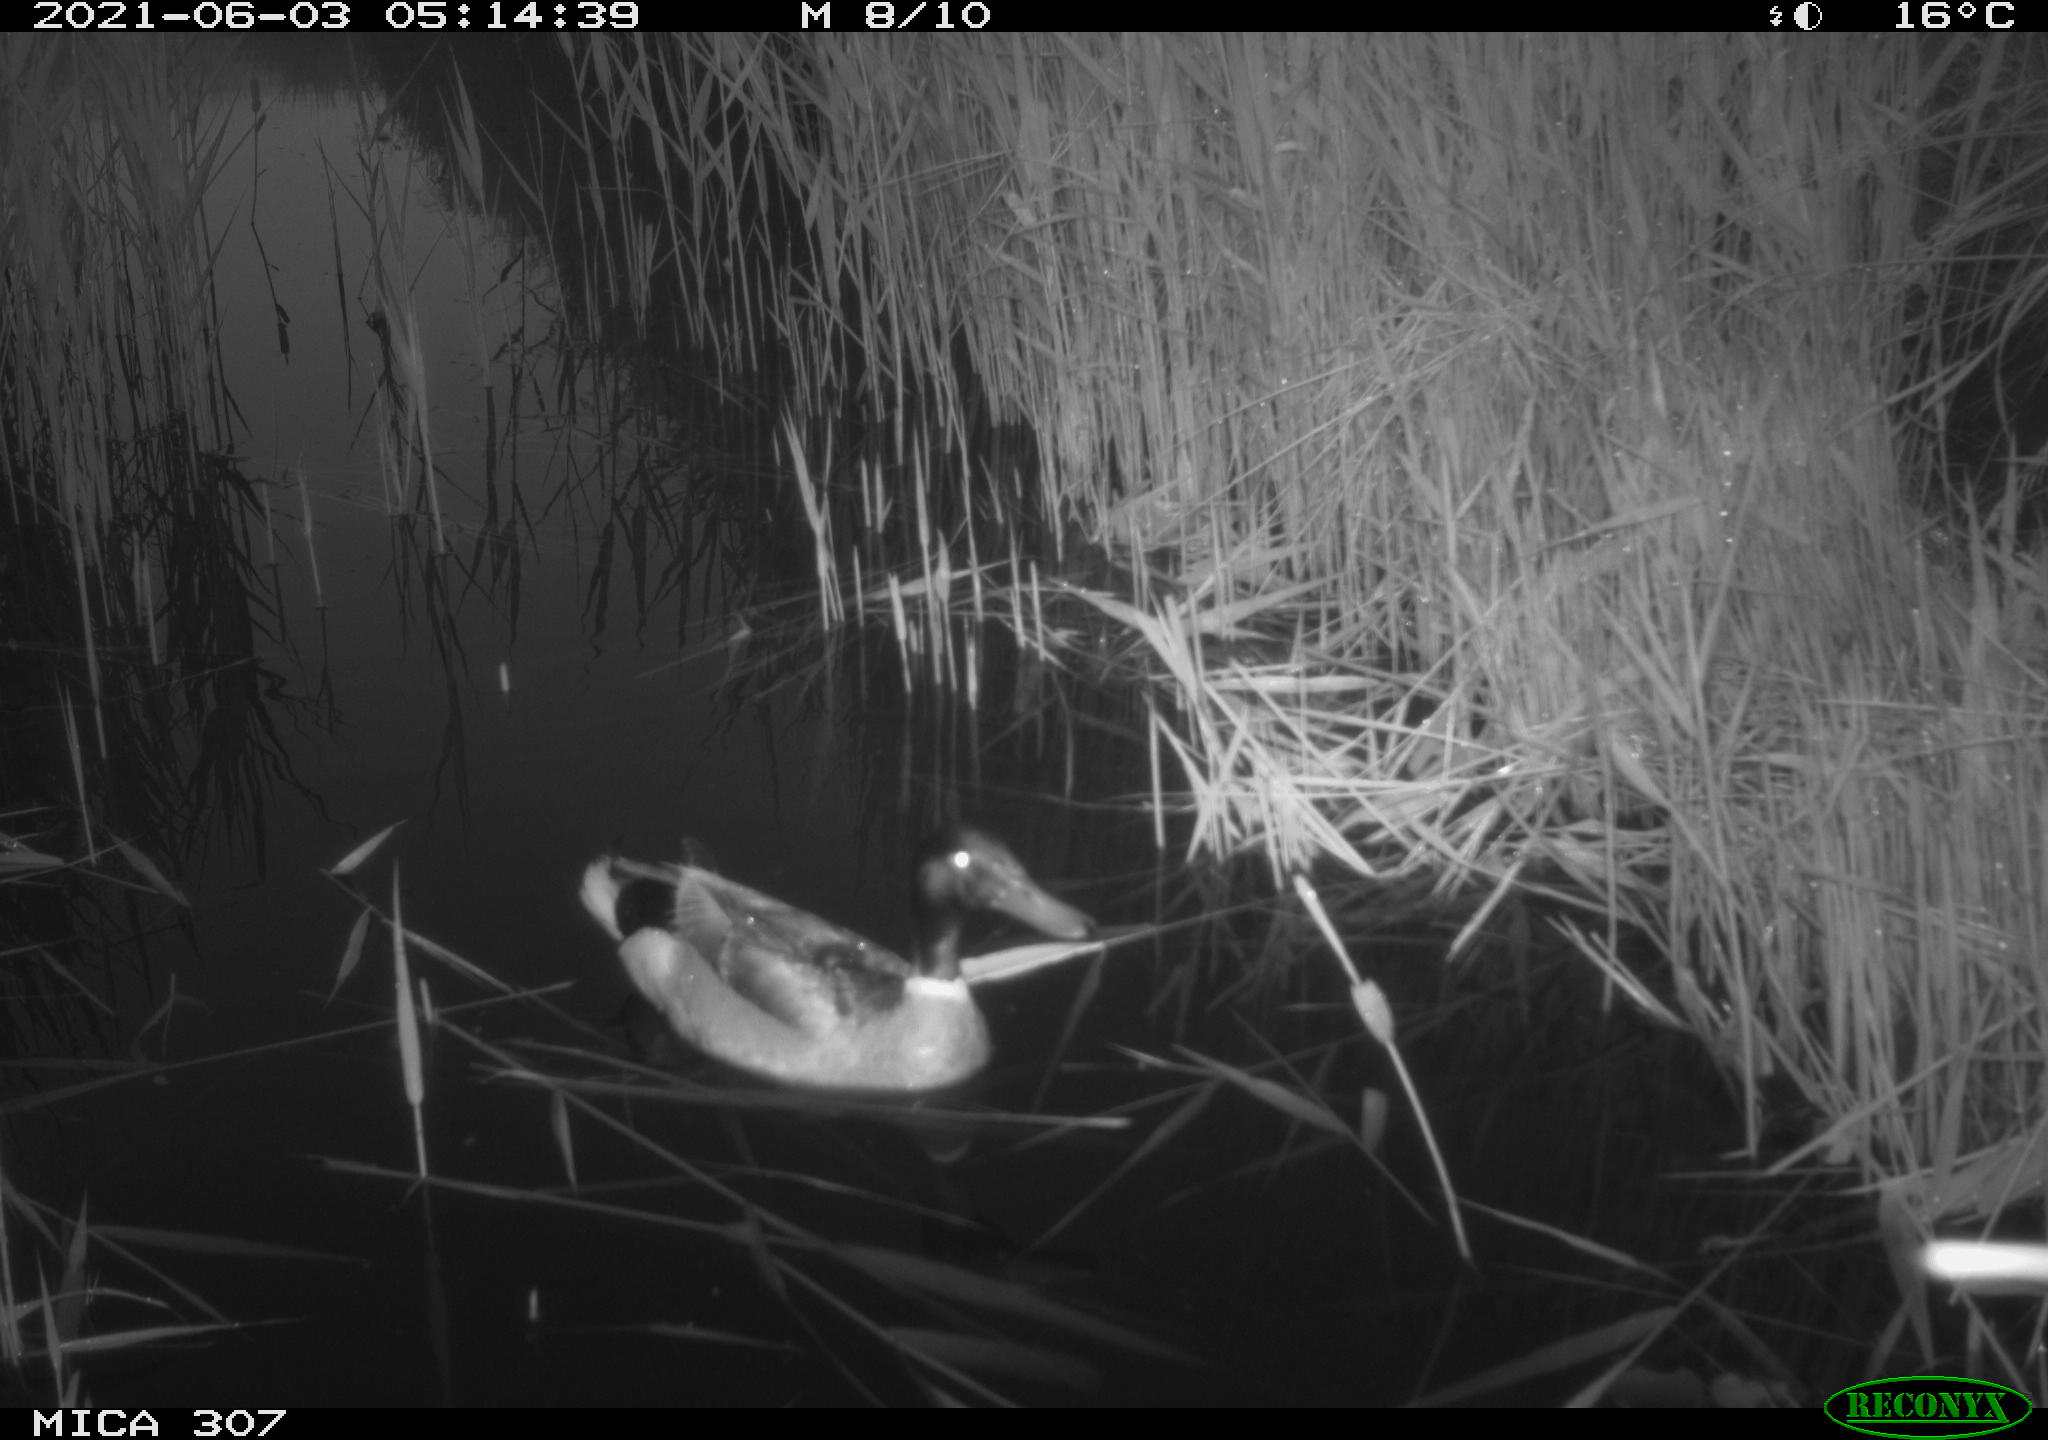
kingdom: Animalia
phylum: Chordata
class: Aves
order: Anseriformes
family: Anatidae
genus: Anas
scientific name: Anas platyrhynchos
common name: Mallard
